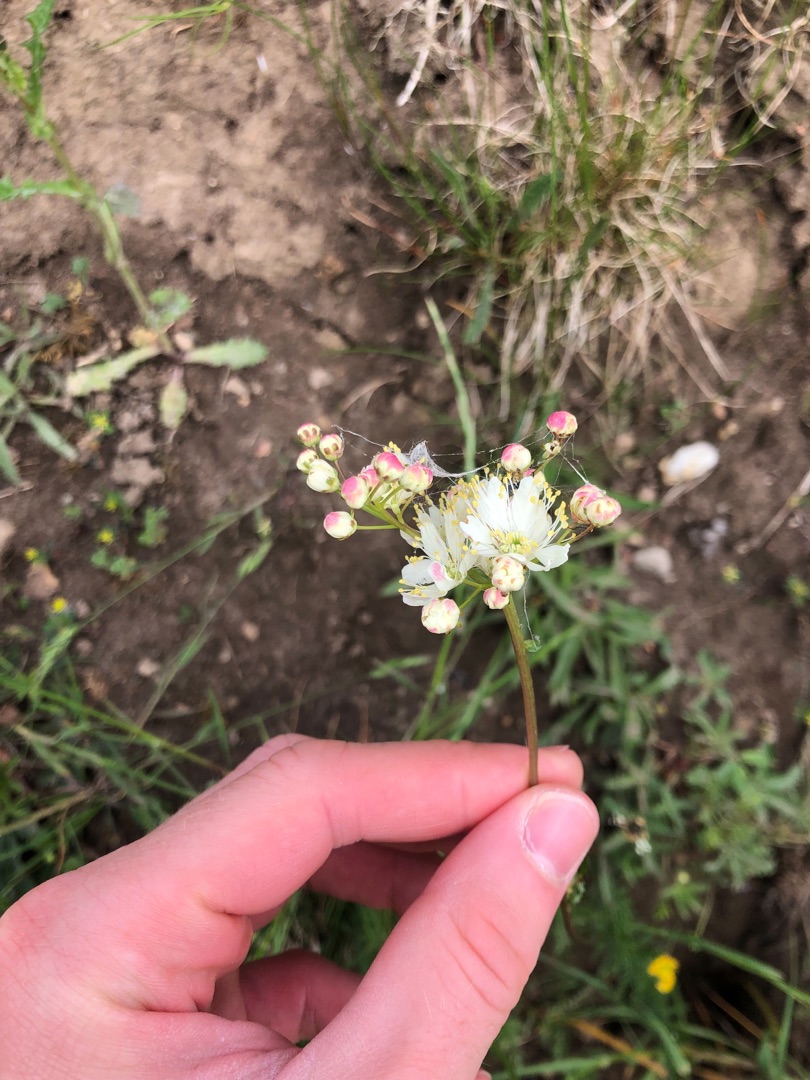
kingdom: Plantae
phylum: Tracheophyta
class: Magnoliopsida
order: Rosales
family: Rosaceae
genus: Filipendula
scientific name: Filipendula vulgaris
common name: Knoldet mjødurt
